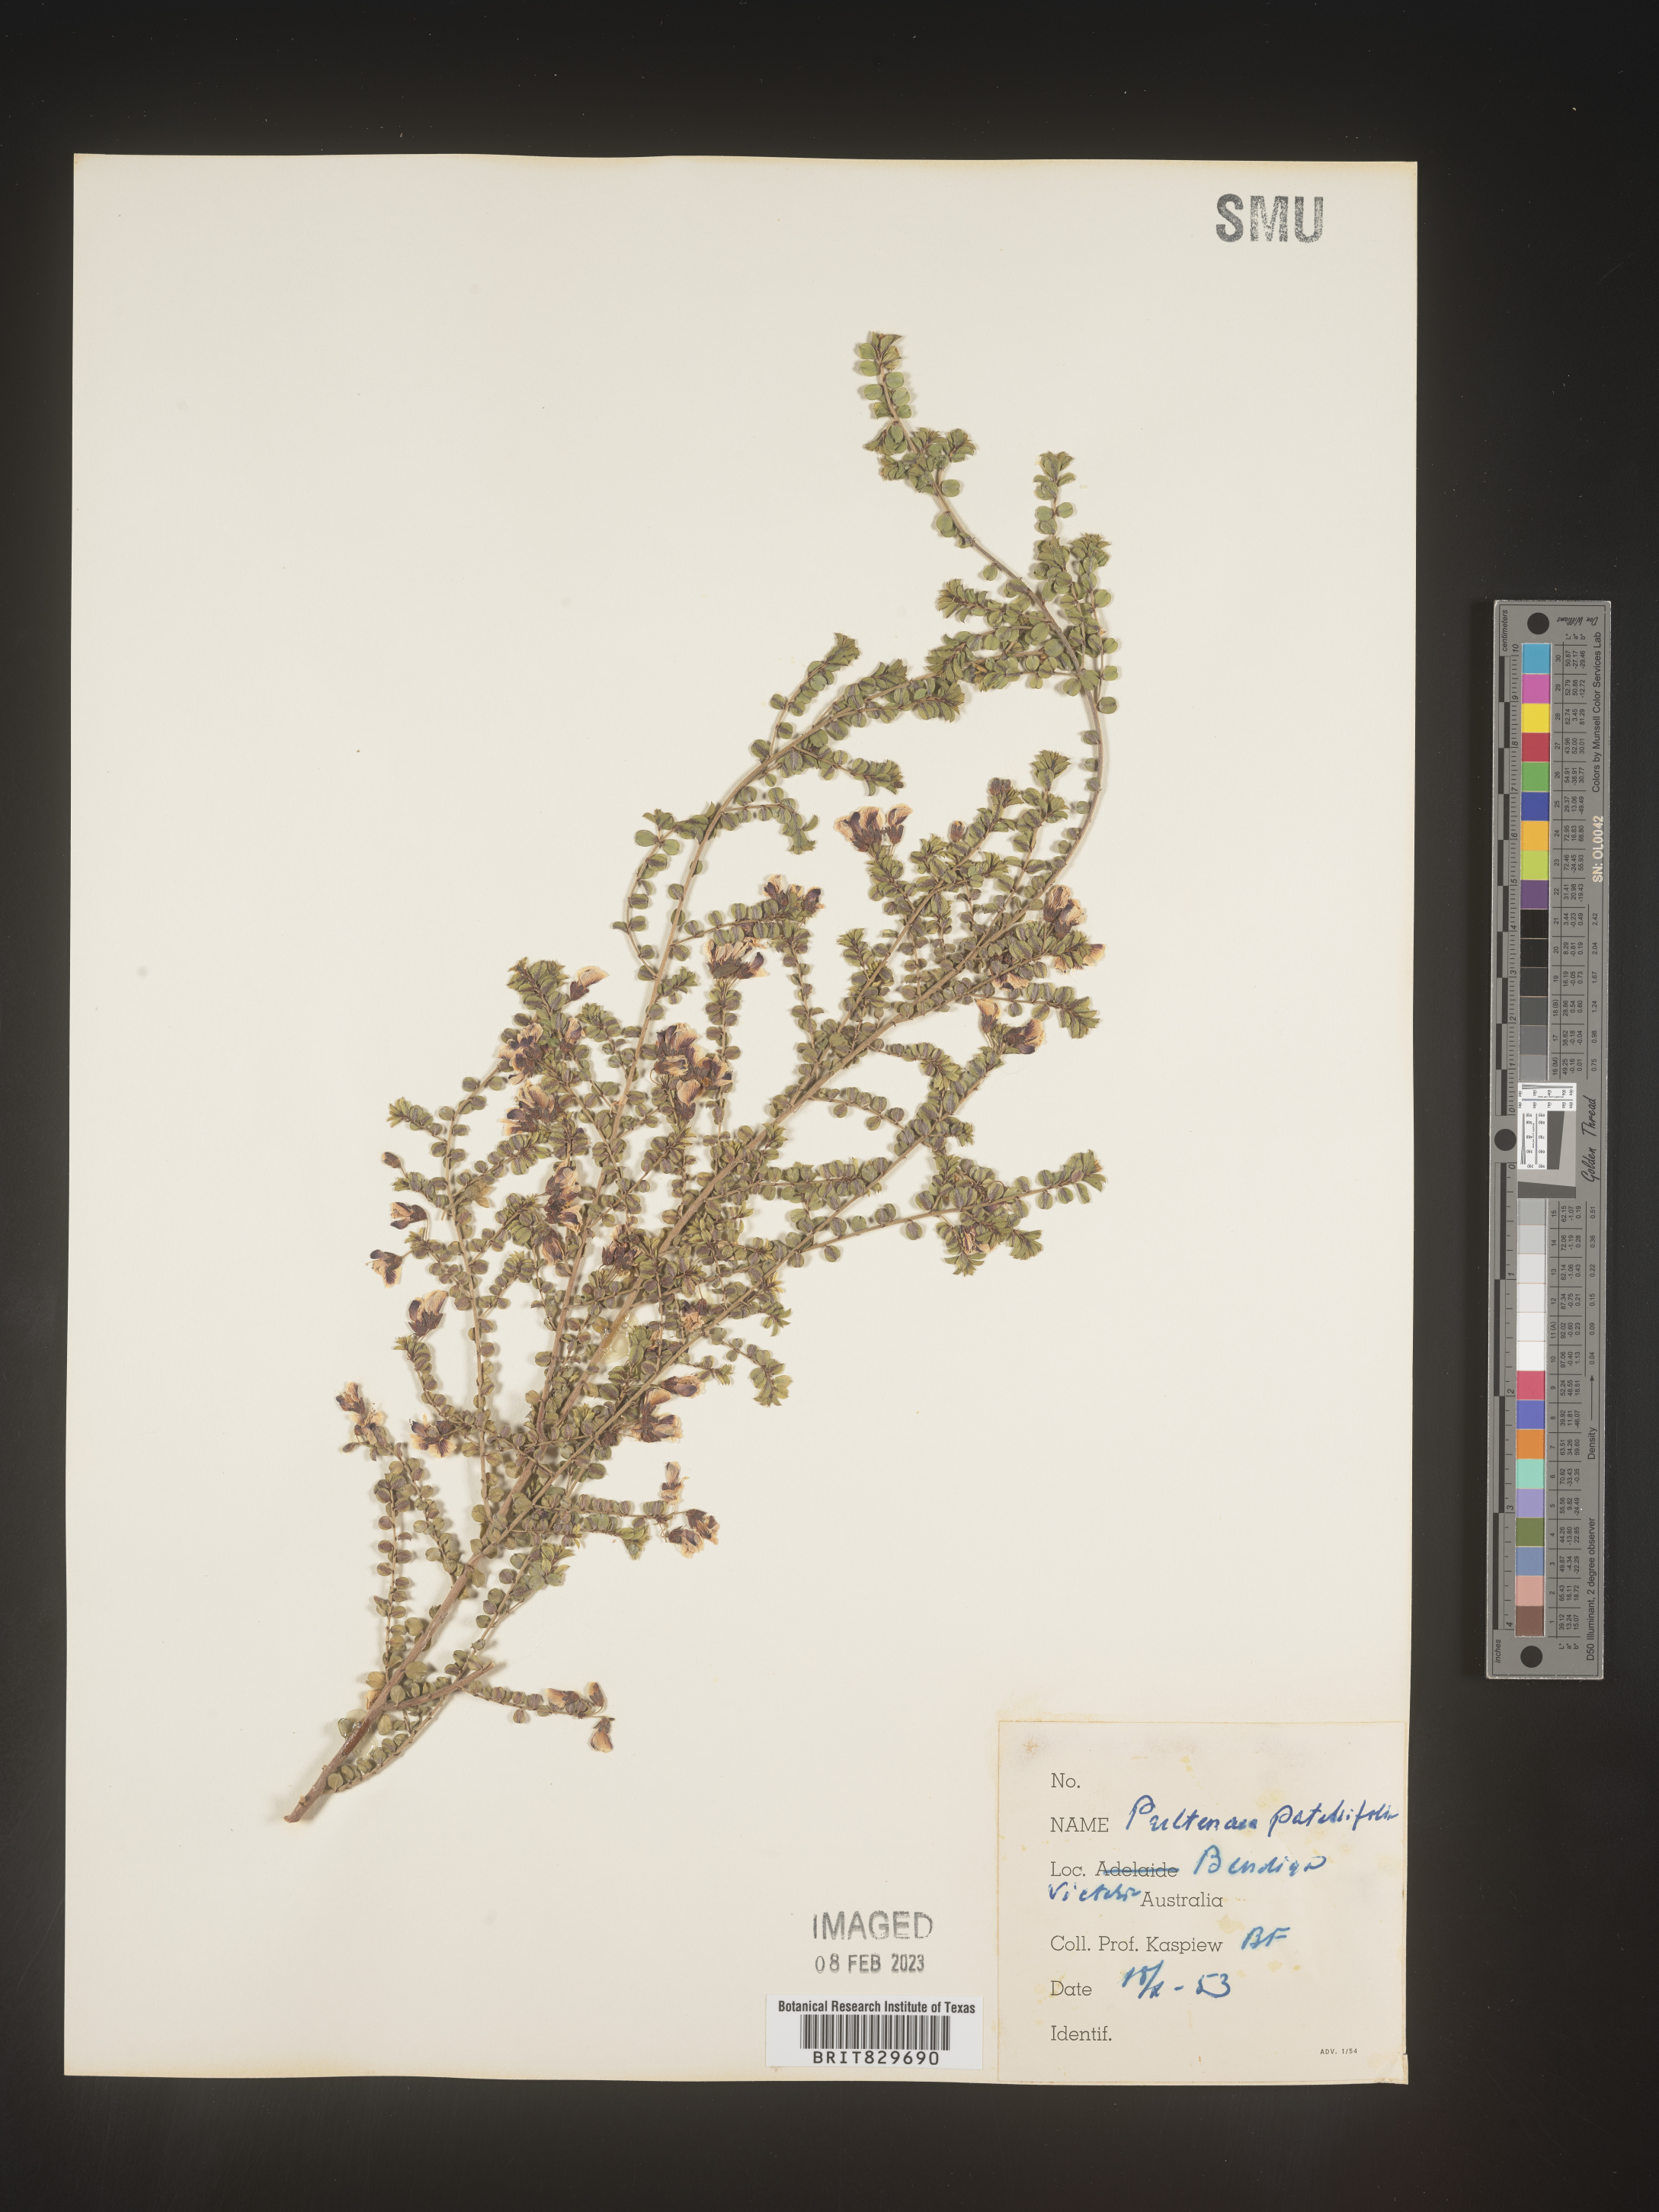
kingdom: Plantae
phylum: Tracheophyta
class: Magnoliopsida
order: Fabales
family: Fabaceae
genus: Pultenaea
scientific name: Pultenaea
